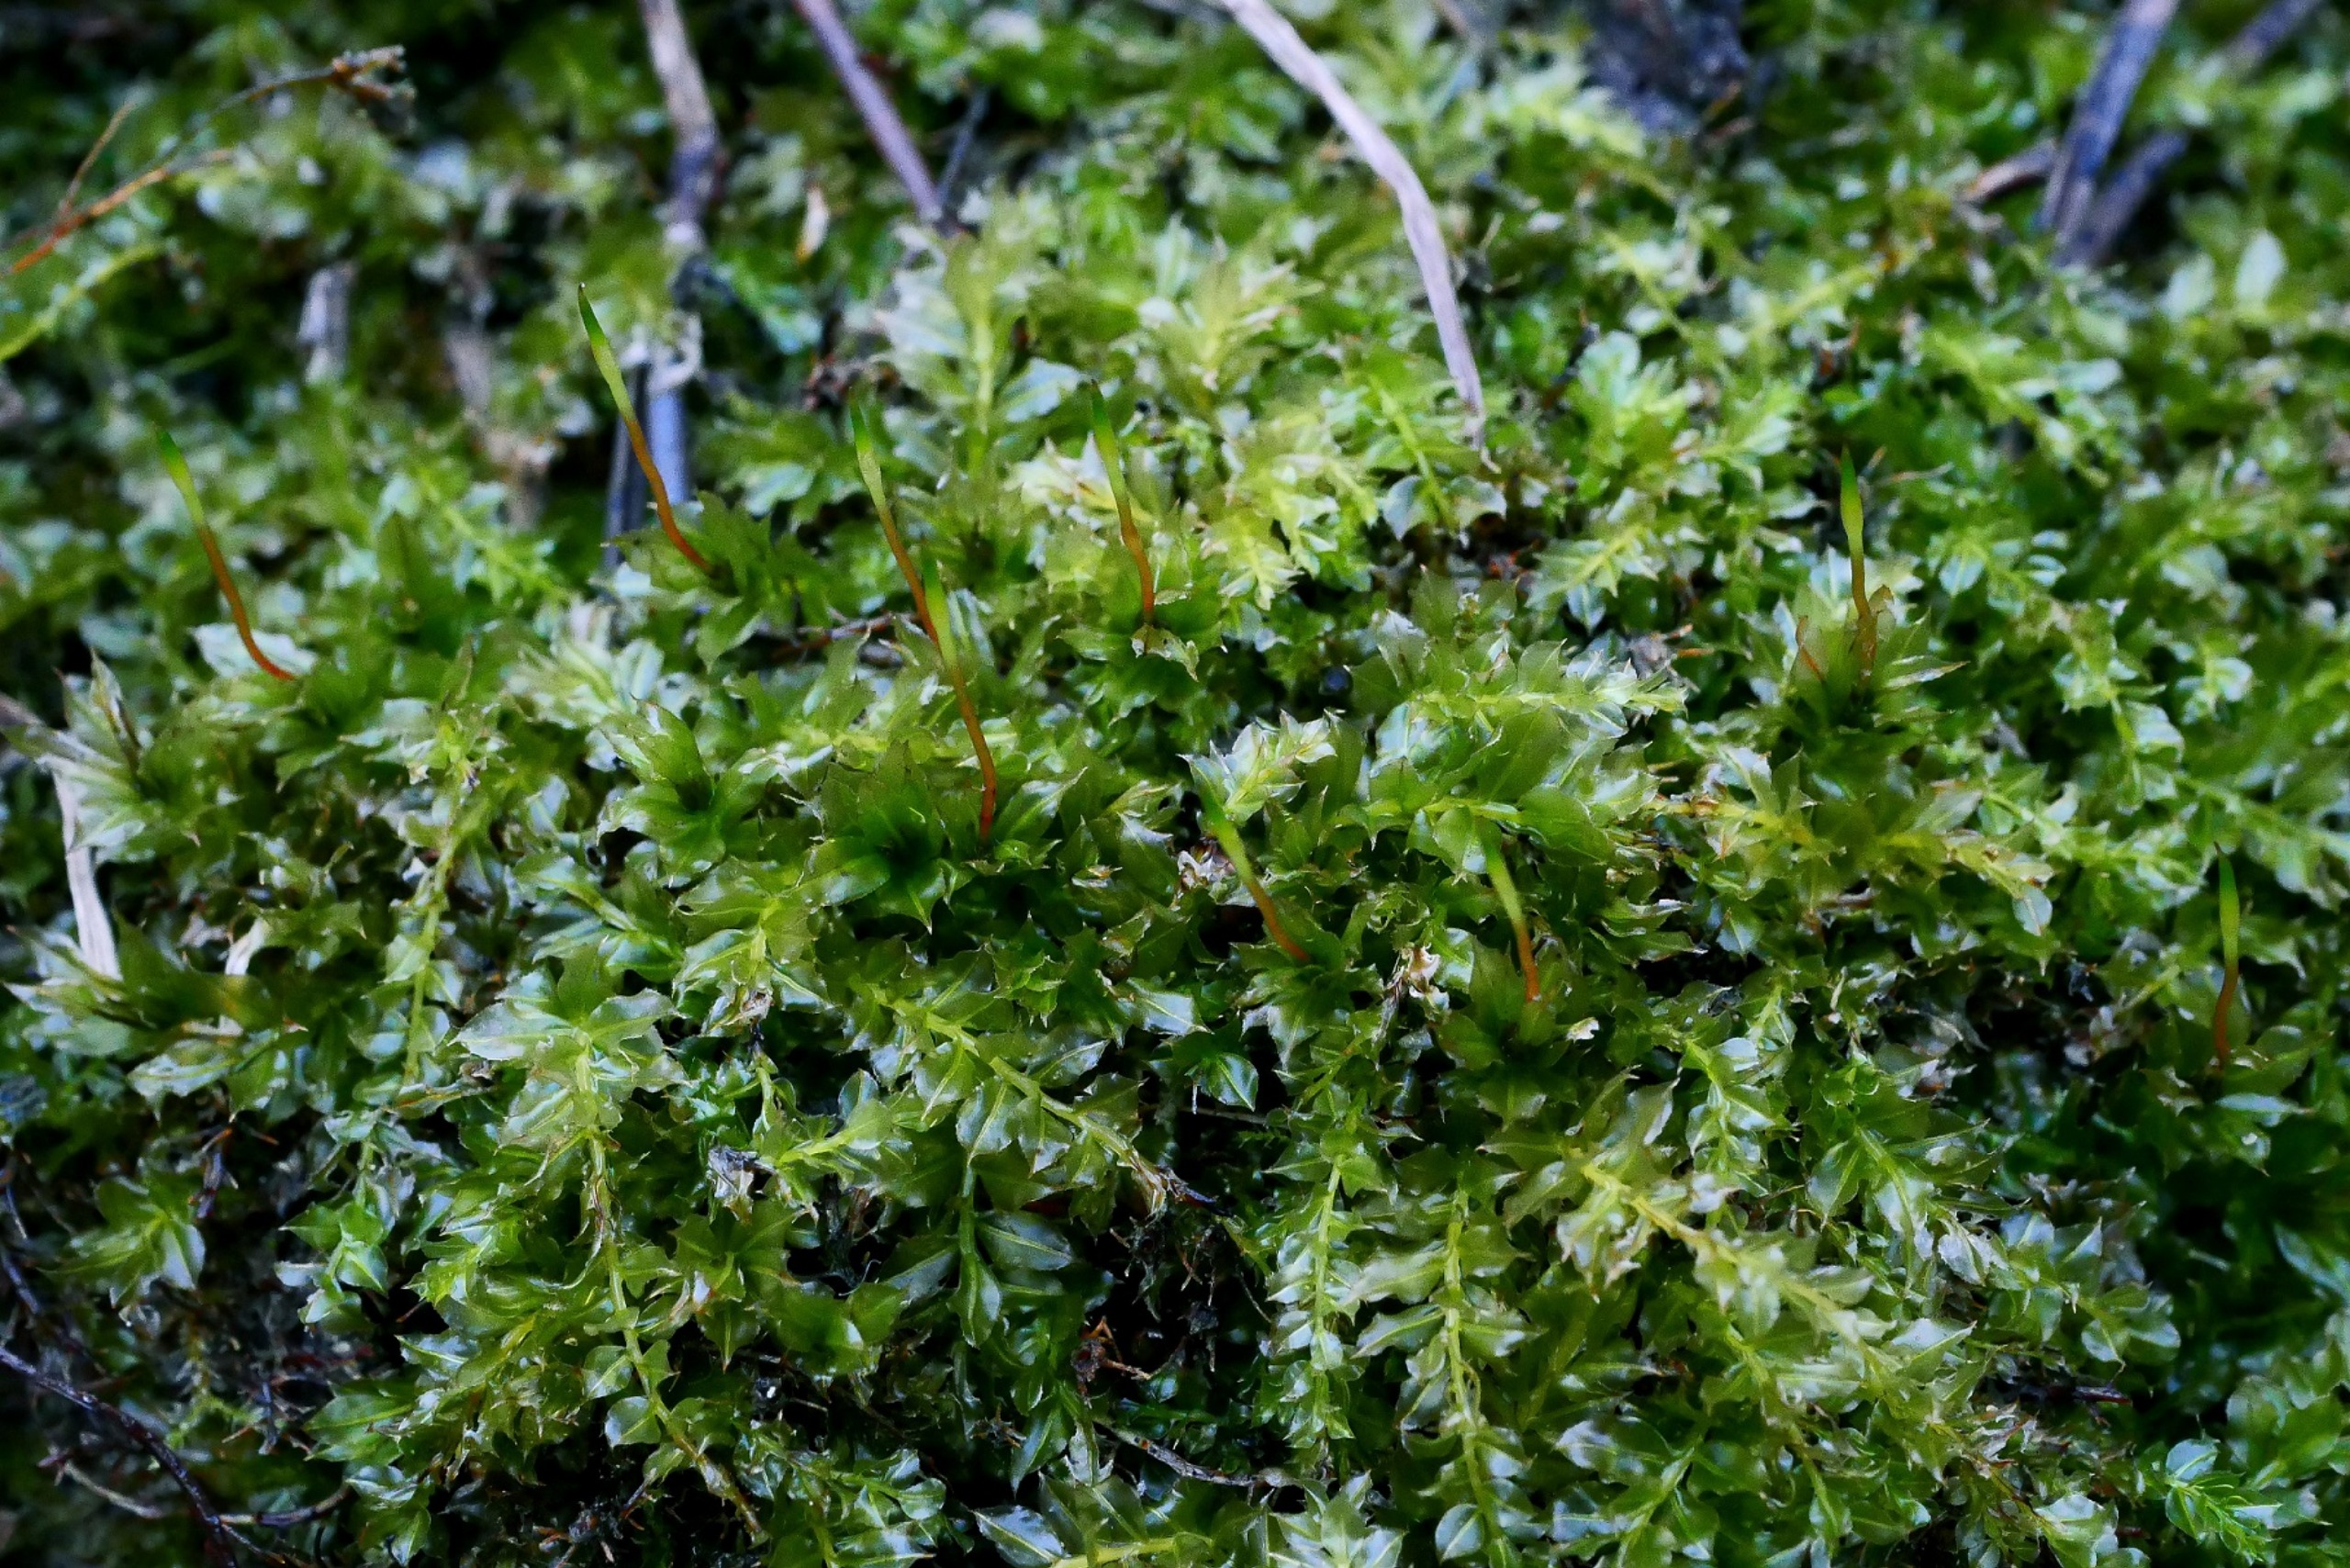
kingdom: Plantae
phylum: Bryophyta
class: Bryopsida
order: Bryales
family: Mniaceae
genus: Plagiomnium
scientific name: Plagiomnium cuspidatum
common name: Gærde-krybstjerne
